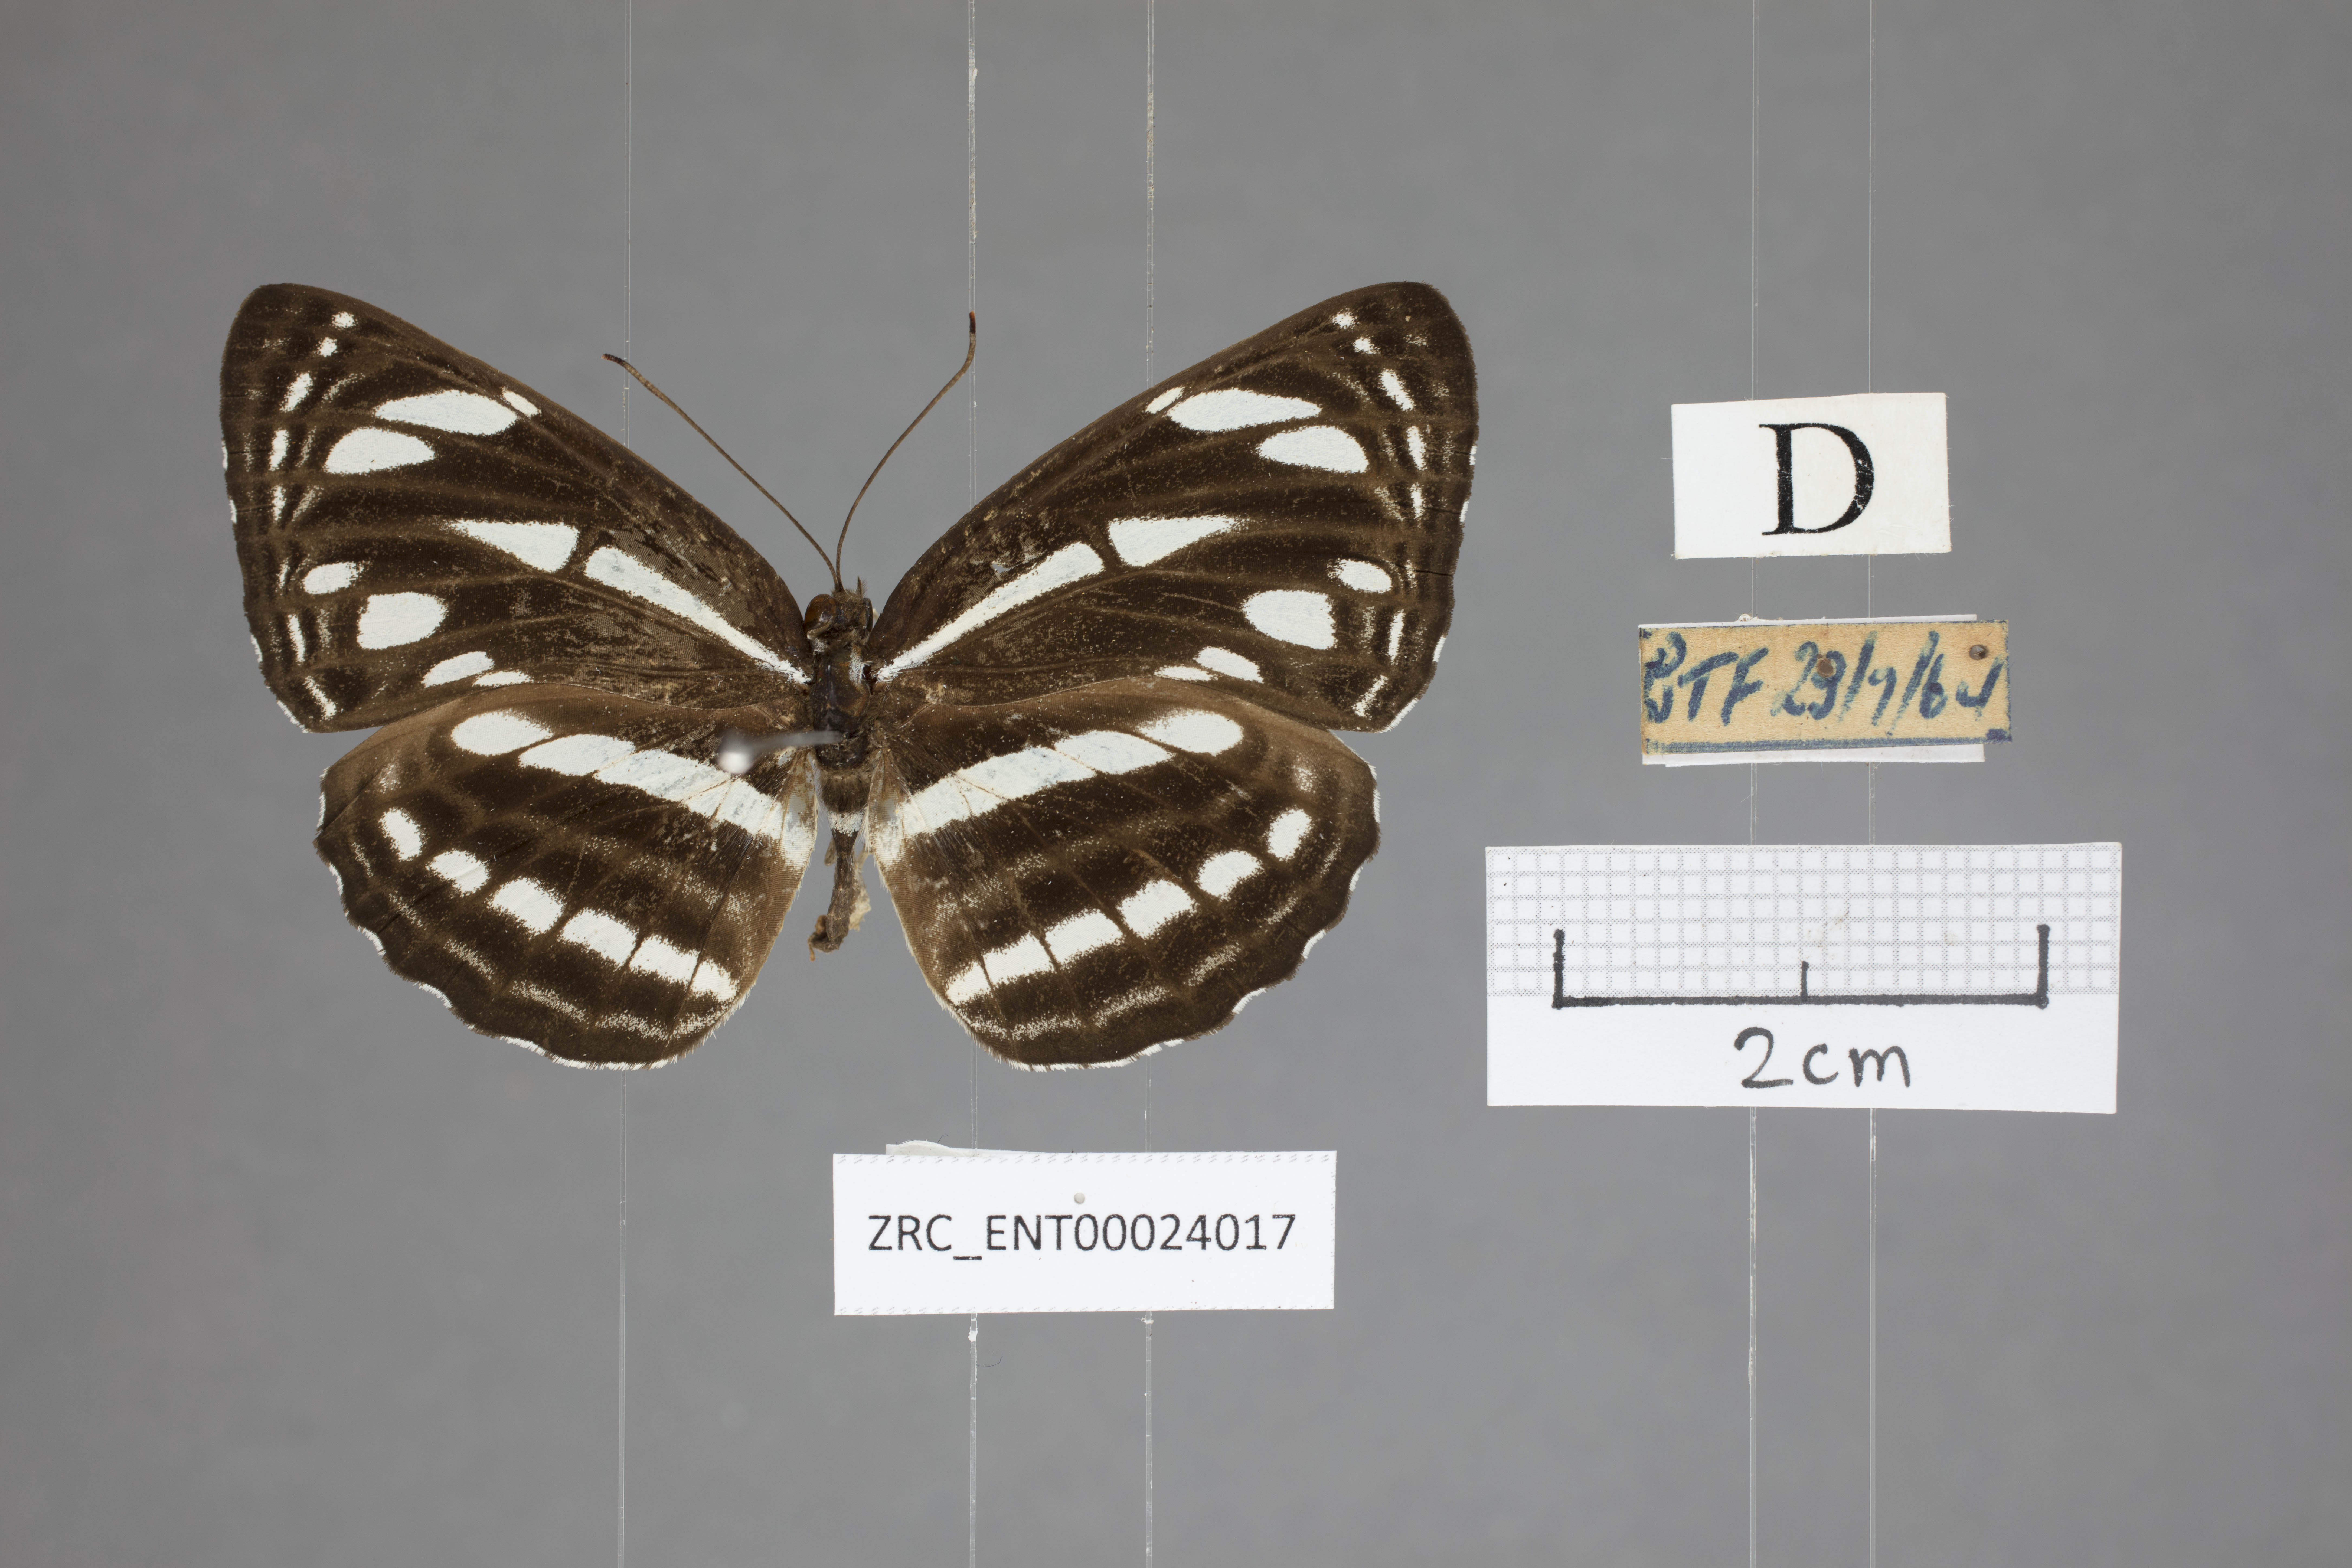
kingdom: Animalia
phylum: Arthropoda
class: Insecta
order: Lepidoptera
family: Nymphalidae
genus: Neptis
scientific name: Neptis leucoporus
